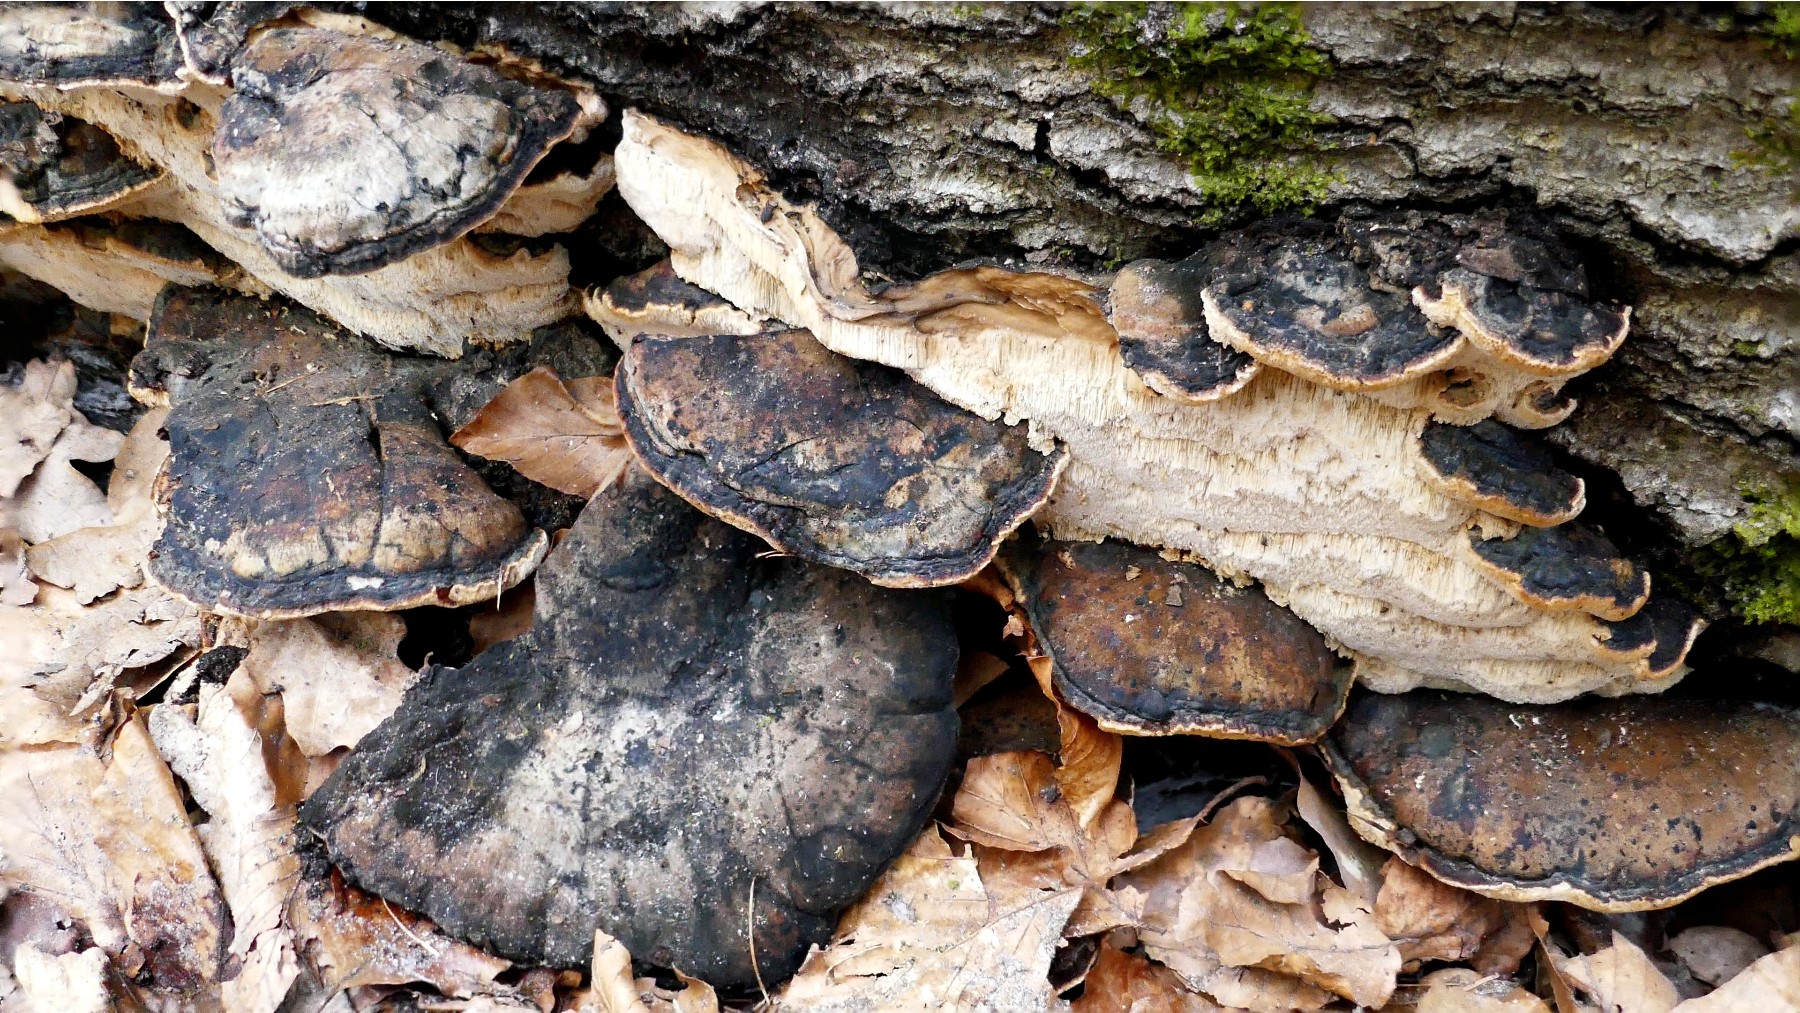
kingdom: Fungi
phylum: Basidiomycota
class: Agaricomycetes
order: Polyporales
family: Ischnodermataceae
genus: Ischnoderma
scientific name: Ischnoderma resinosum
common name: løv-tjæreporesvamp
